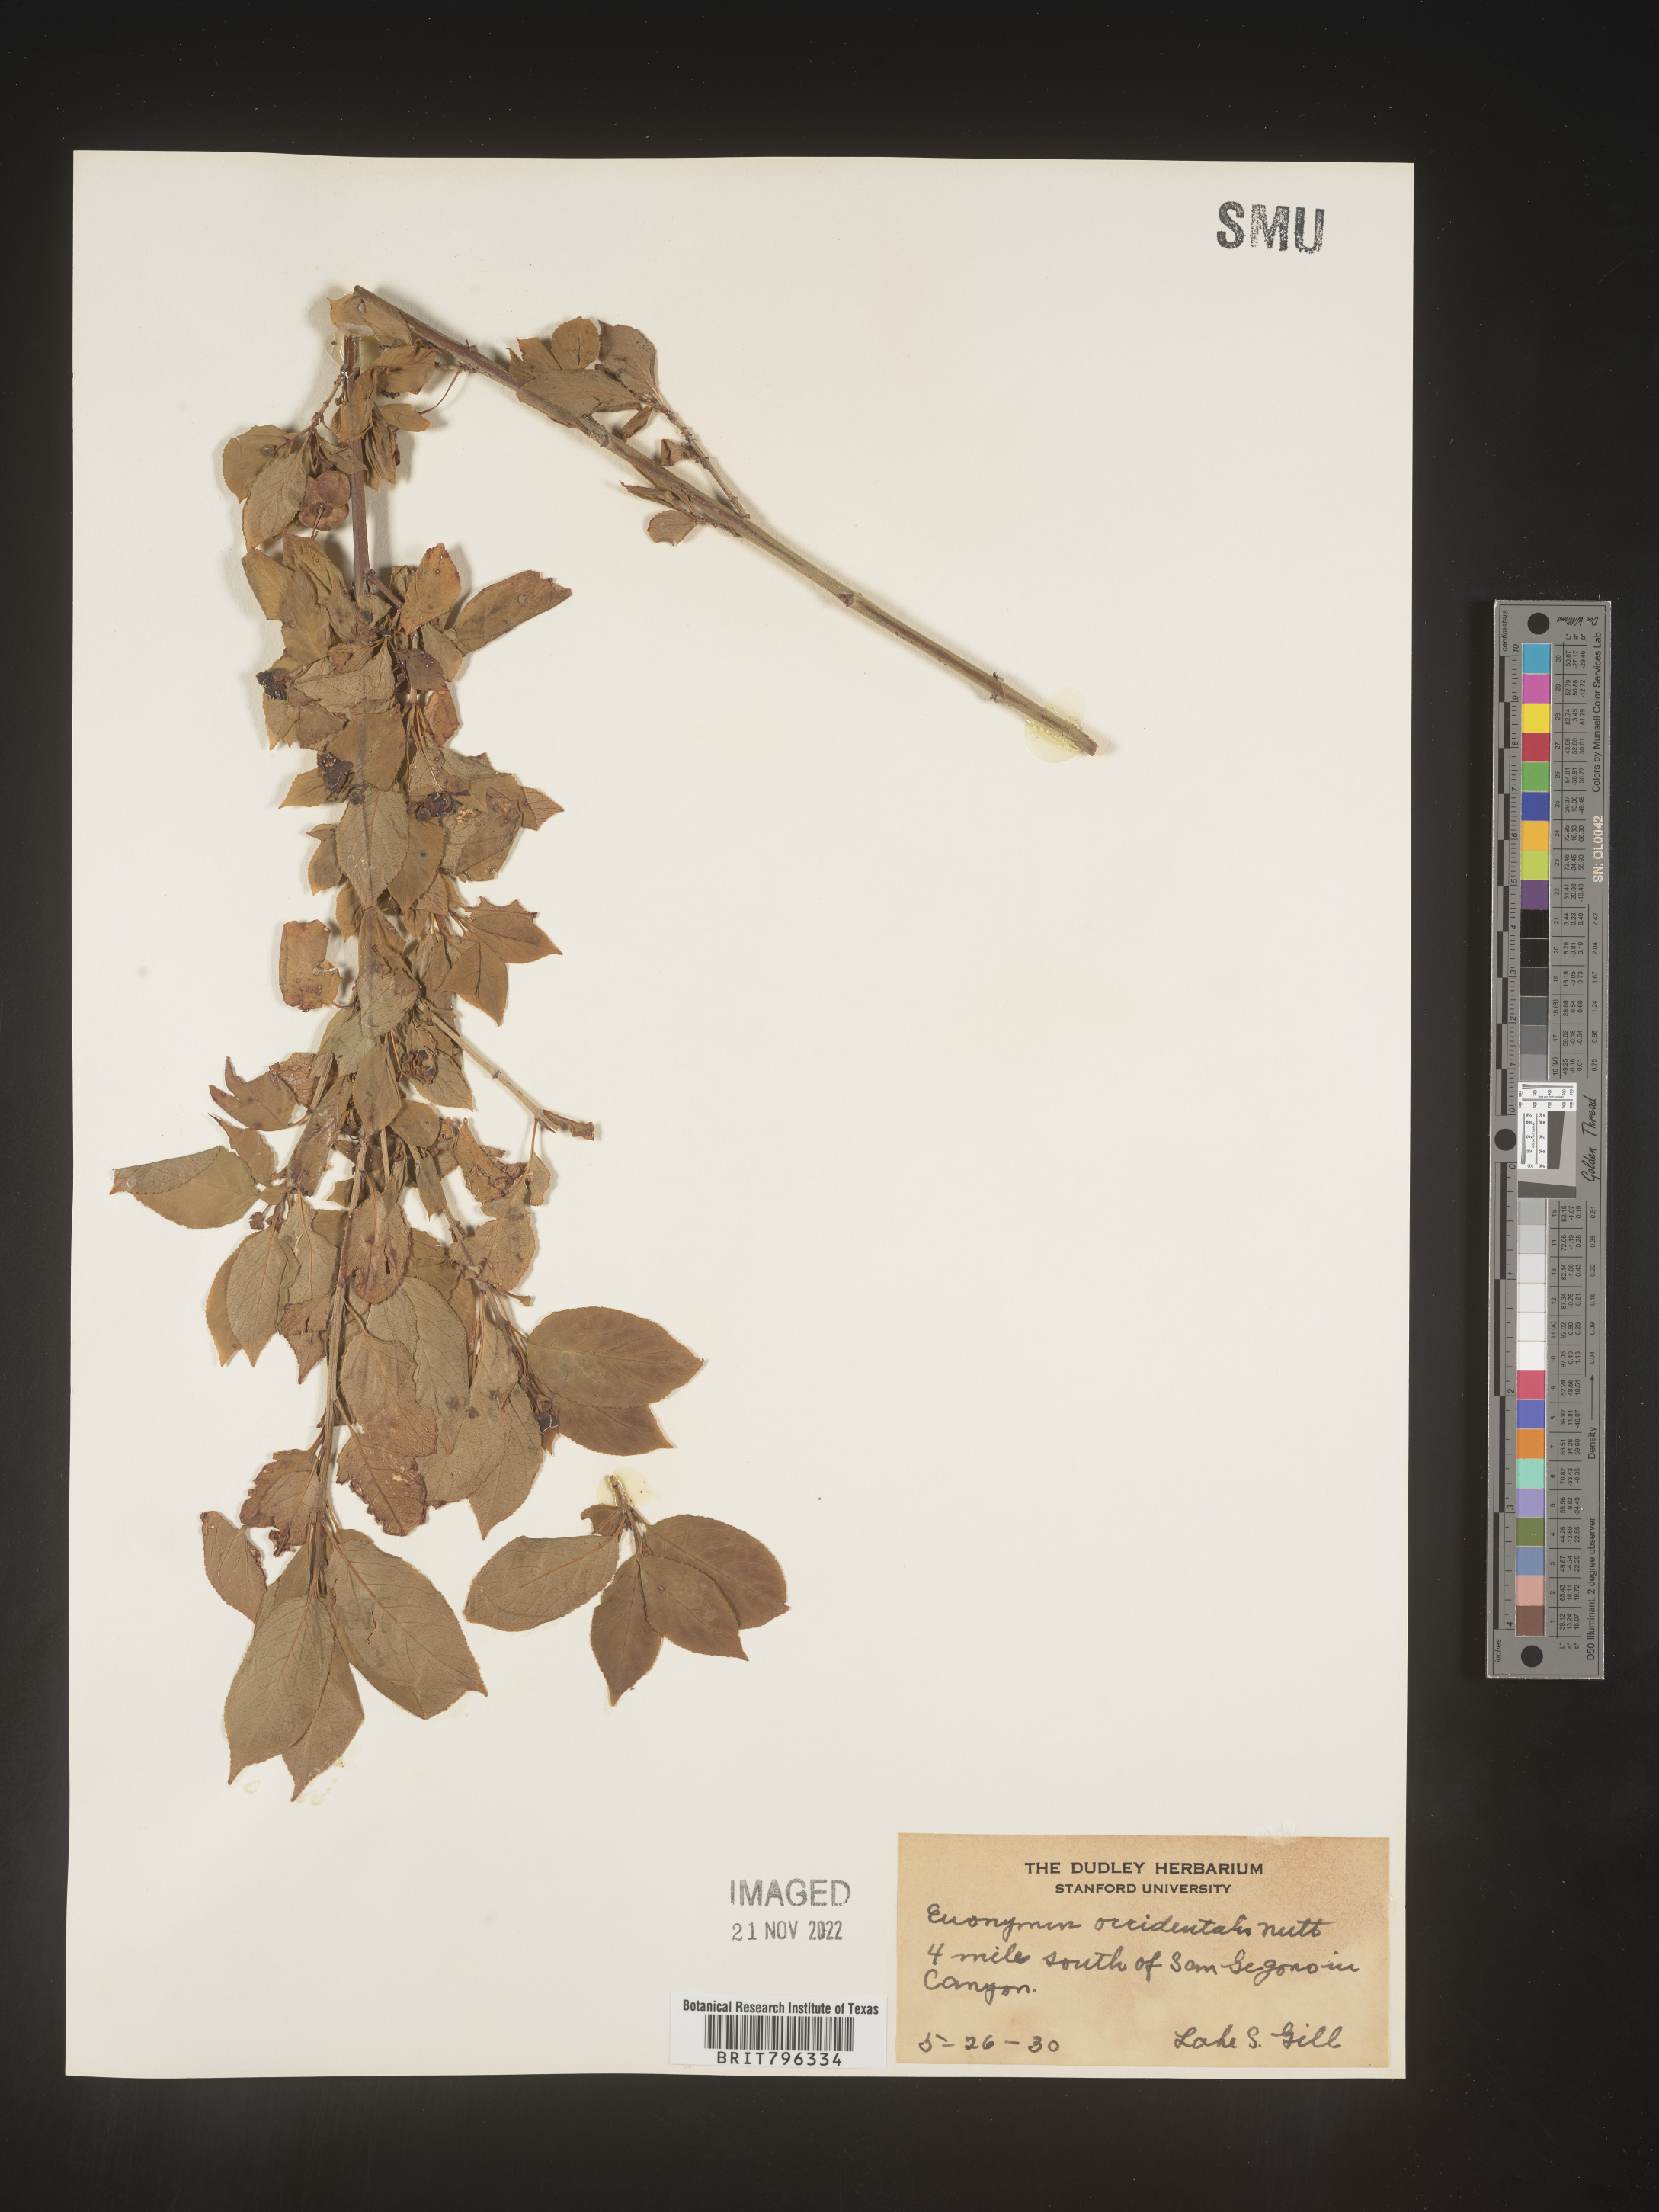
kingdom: Plantae
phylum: Tracheophyta
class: Magnoliopsida
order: Celastrales
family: Celastraceae
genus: Euonymus
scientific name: Euonymus occidentalis
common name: Western burningbush
